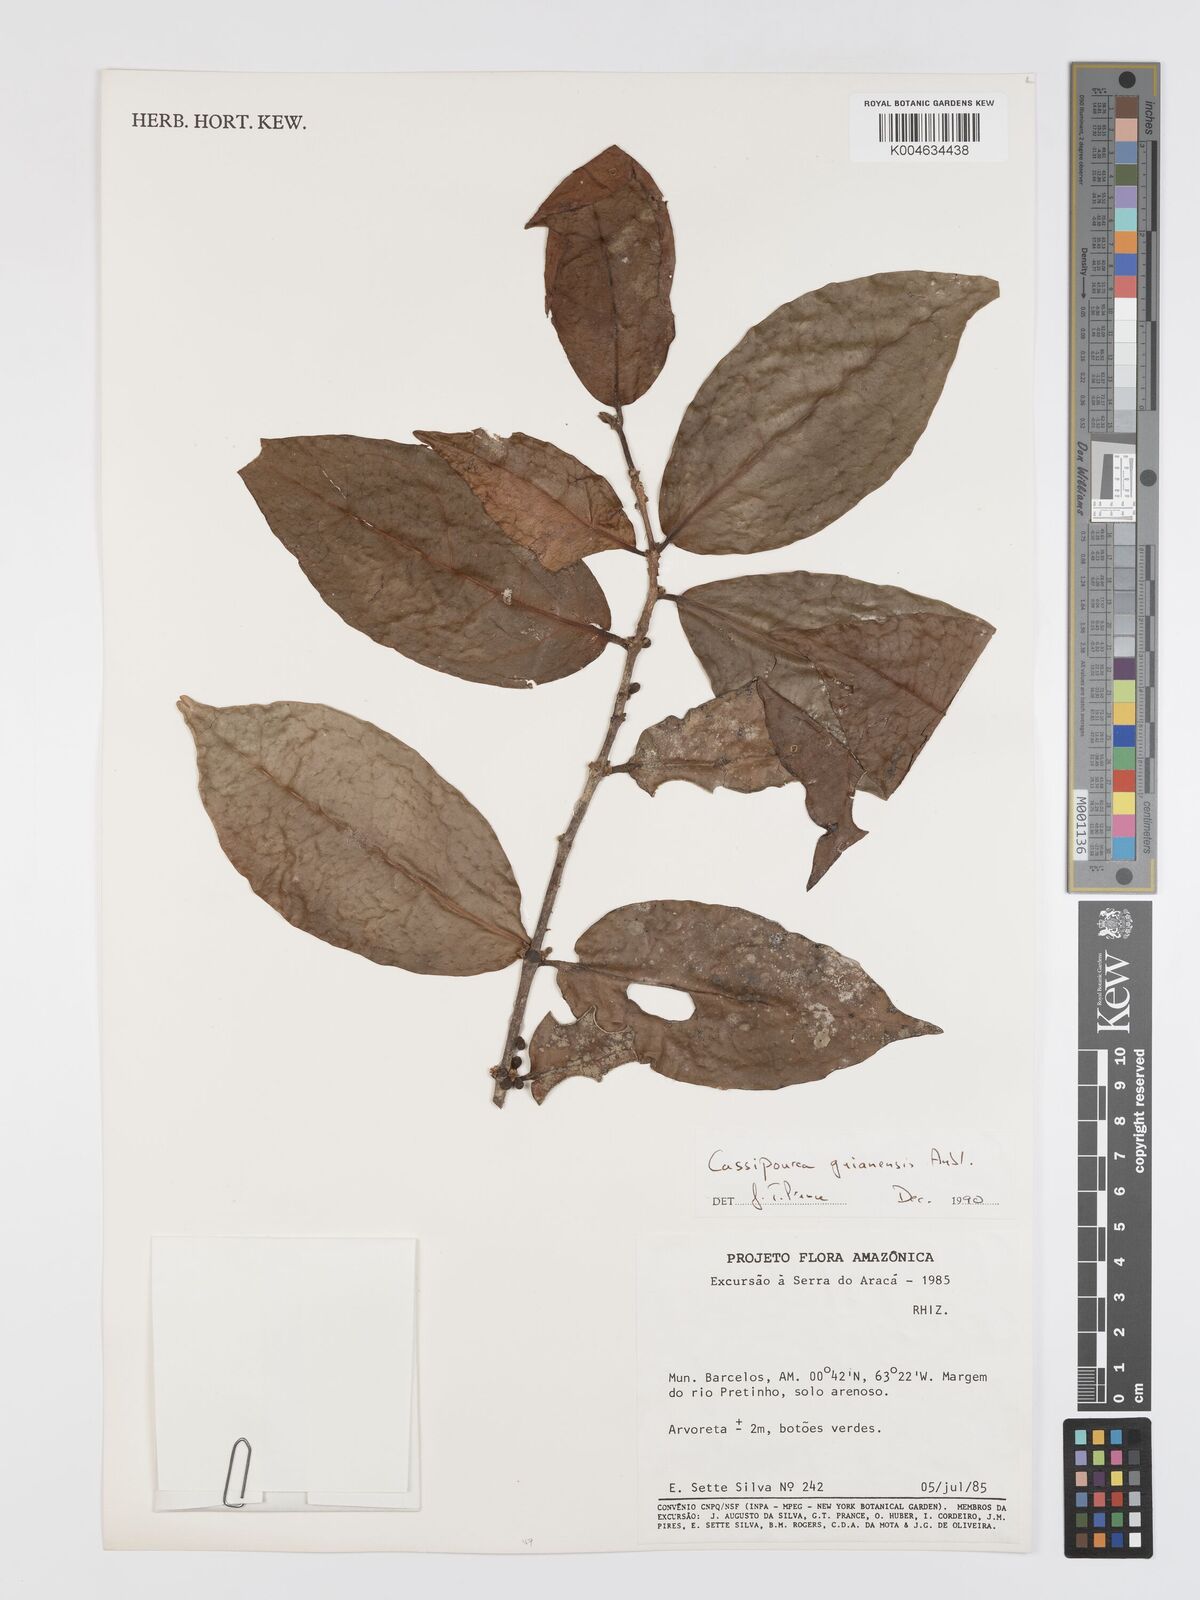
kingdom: Plantae
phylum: Tracheophyta
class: Magnoliopsida
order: Malpighiales
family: Rhizophoraceae
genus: Cassipourea
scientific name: Cassipourea guianensis
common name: Bastard waterwood
